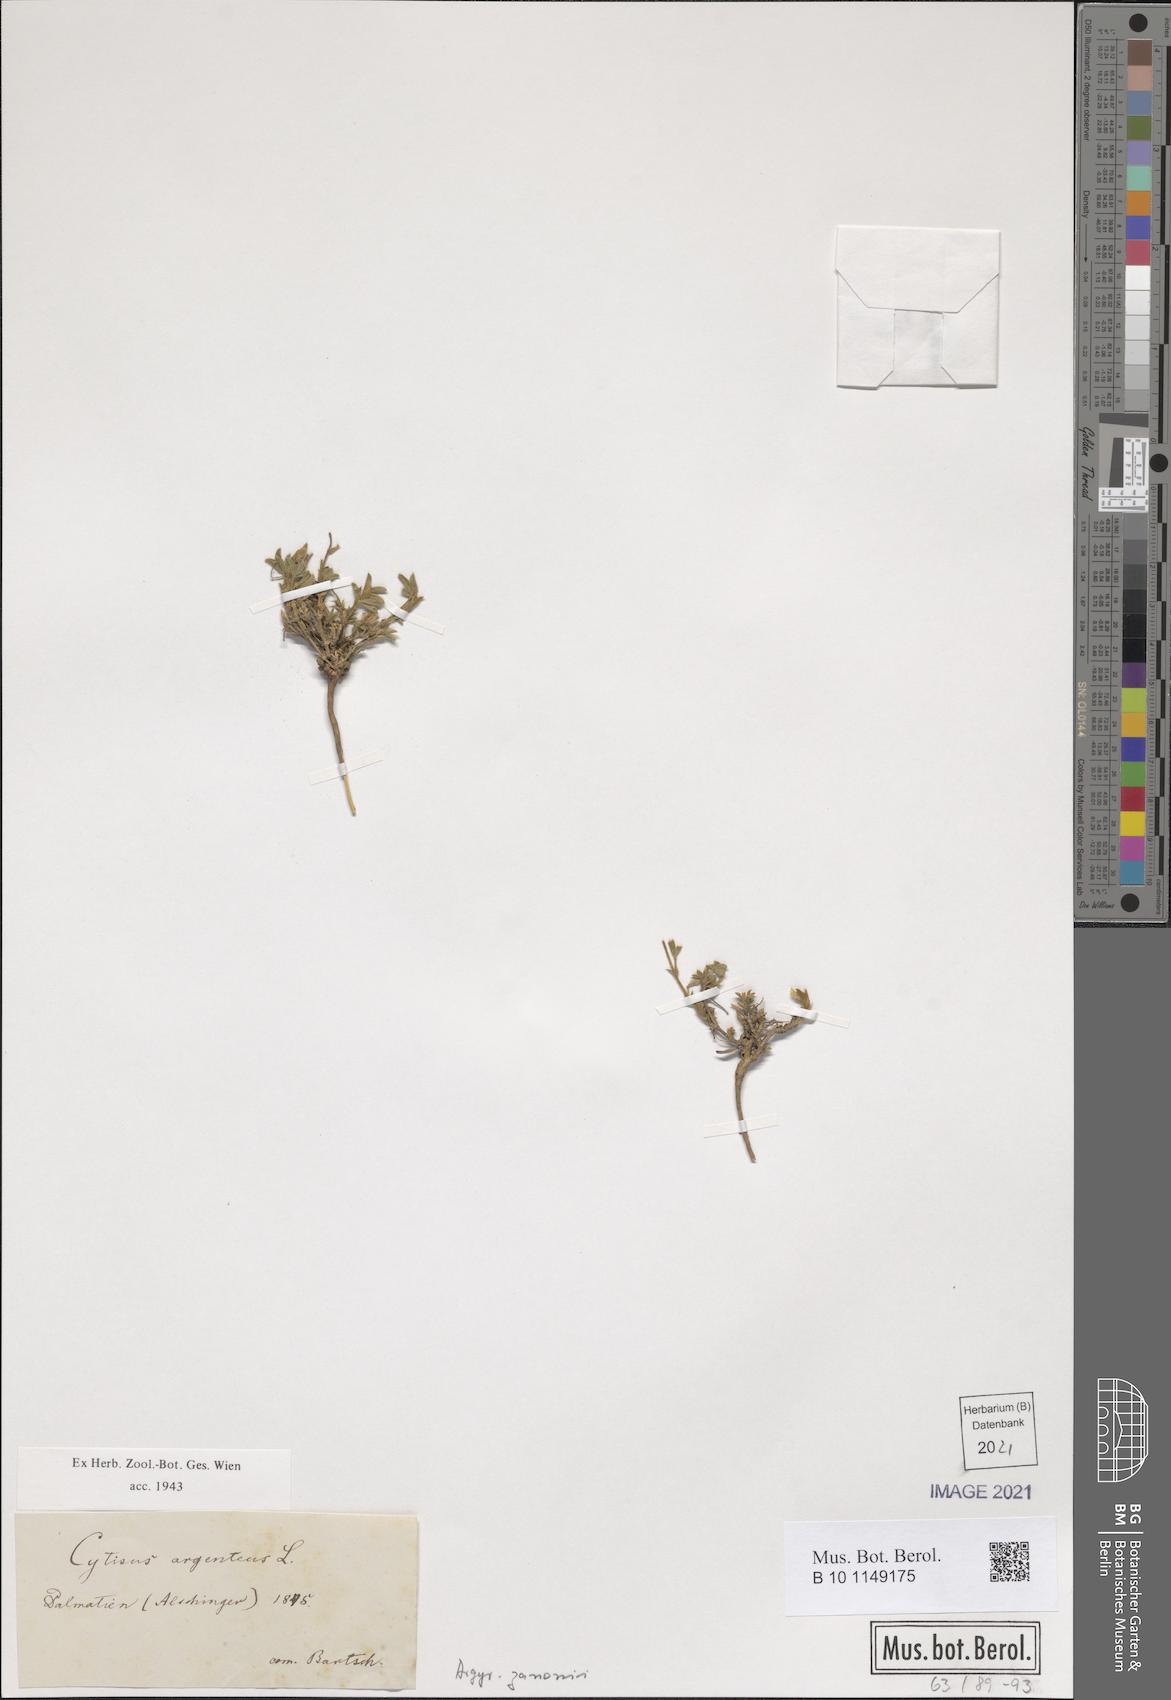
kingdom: Plantae
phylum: Tracheophyta
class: Magnoliopsida
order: Fabales
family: Fabaceae
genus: Argyrolobium
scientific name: Argyrolobium zanonii
